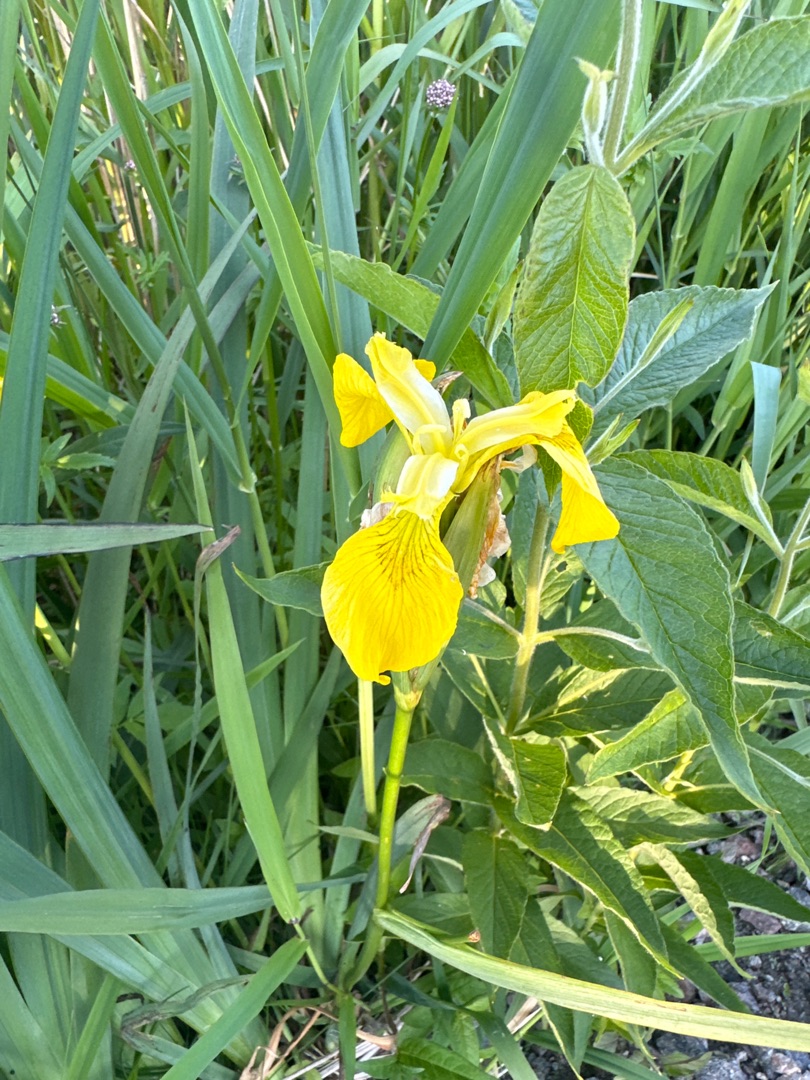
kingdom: Plantae
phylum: Tracheophyta
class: Liliopsida
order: Asparagales
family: Iridaceae
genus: Iris
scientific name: Iris pseudacorus
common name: Gul iris
